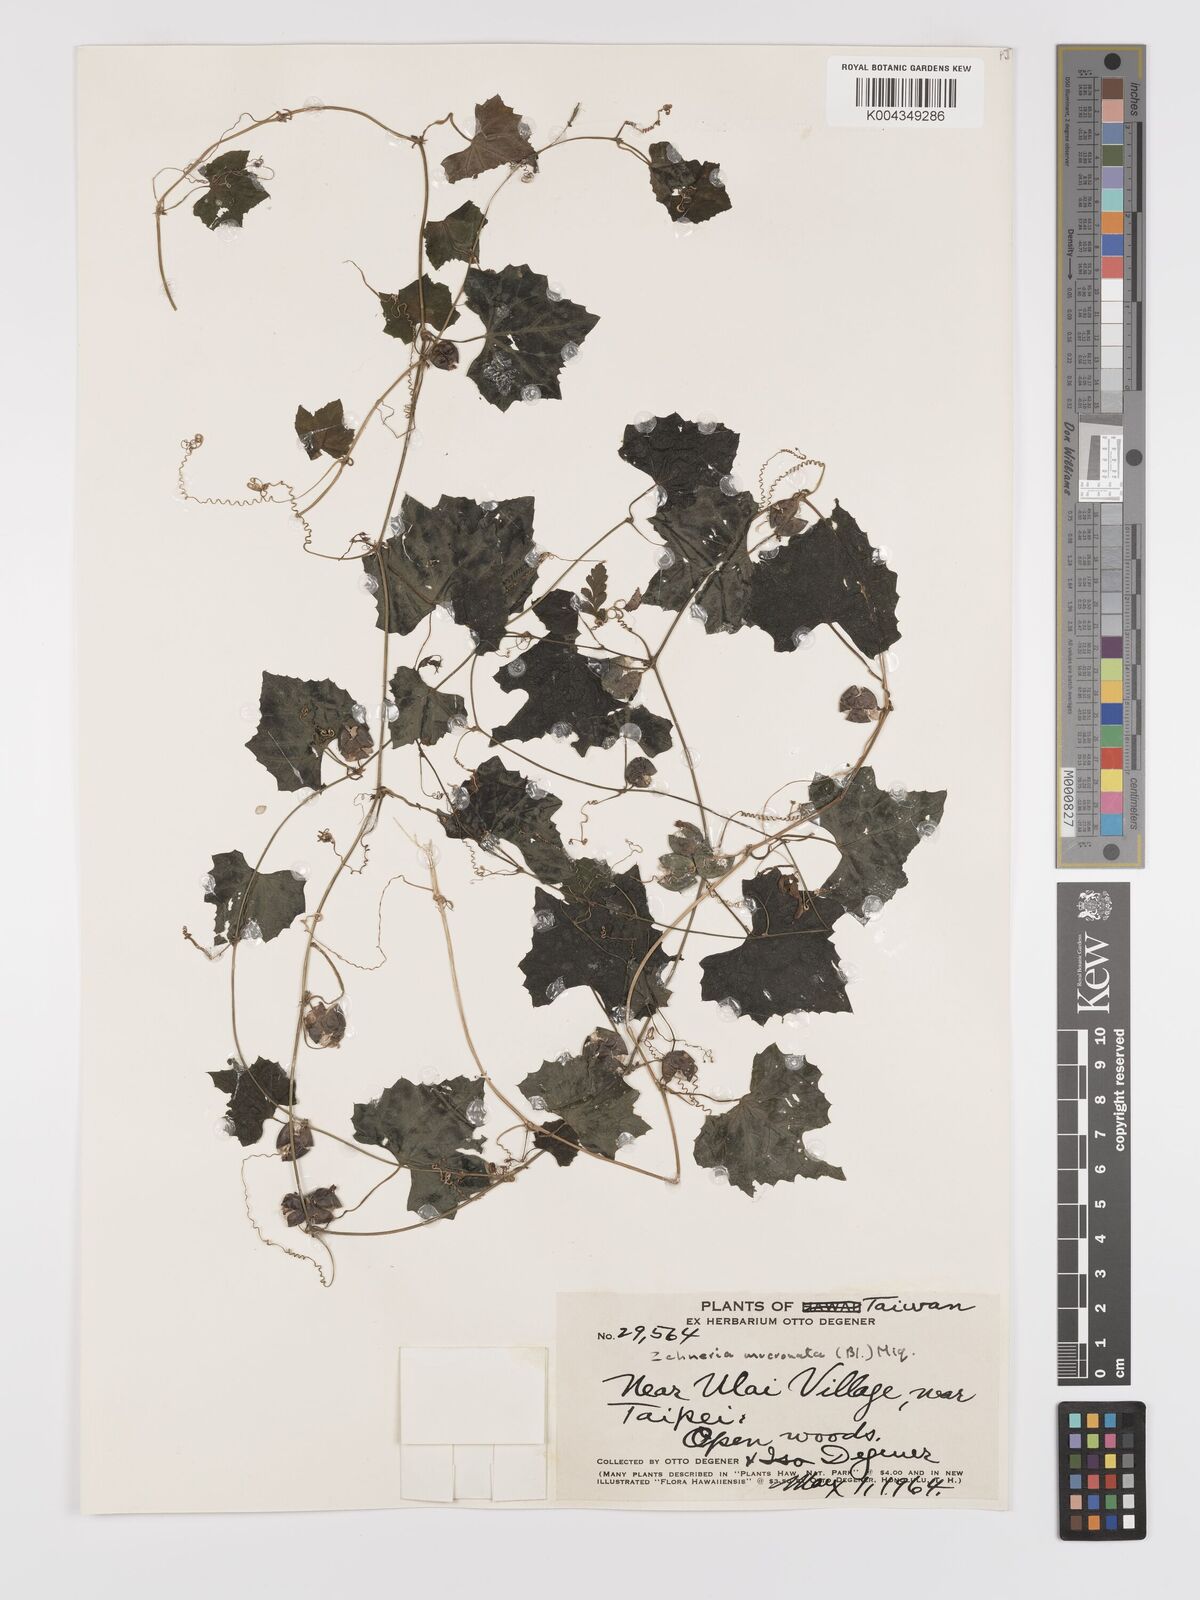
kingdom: Plantae
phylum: Tracheophyta
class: Magnoliopsida
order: Cucurbitales
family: Cucurbitaceae
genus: Zehneria
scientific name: Zehneria mucronata
